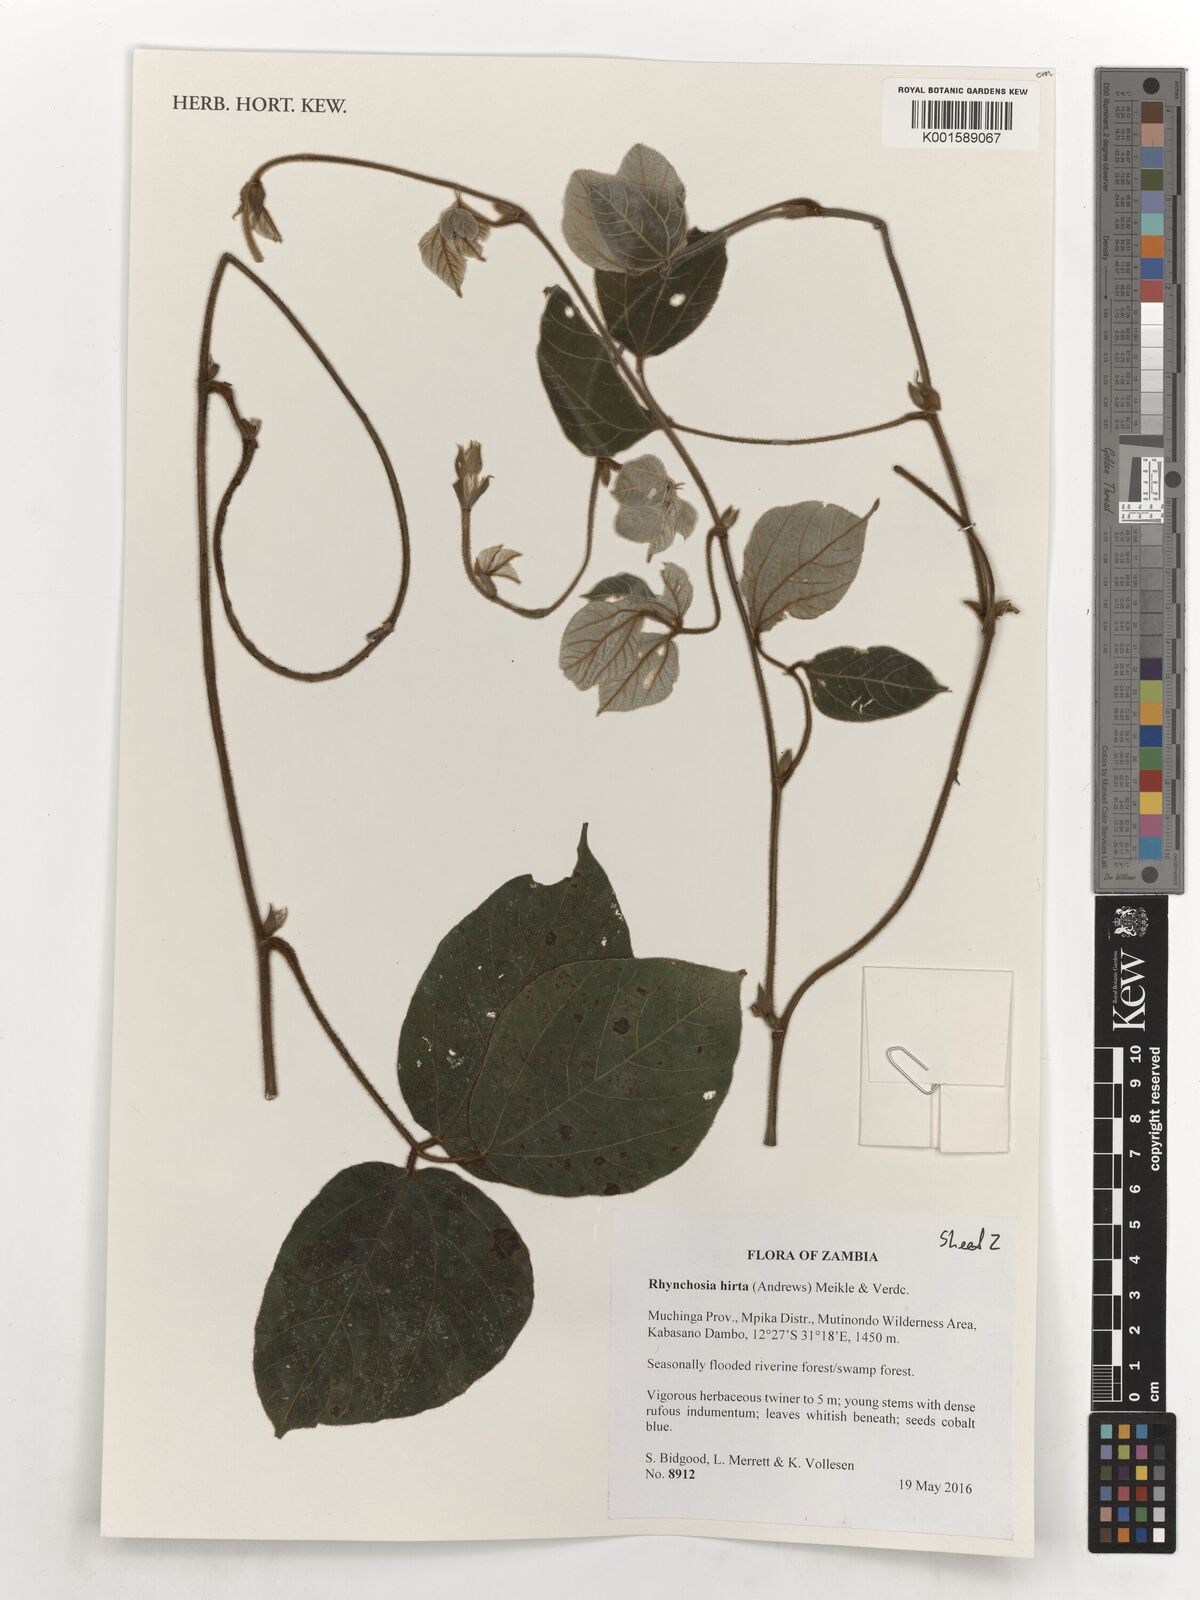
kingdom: Plantae
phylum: Tracheophyta
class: Magnoliopsida
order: Fabales
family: Fabaceae
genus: Rhynchosia
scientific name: Rhynchosia hirta
